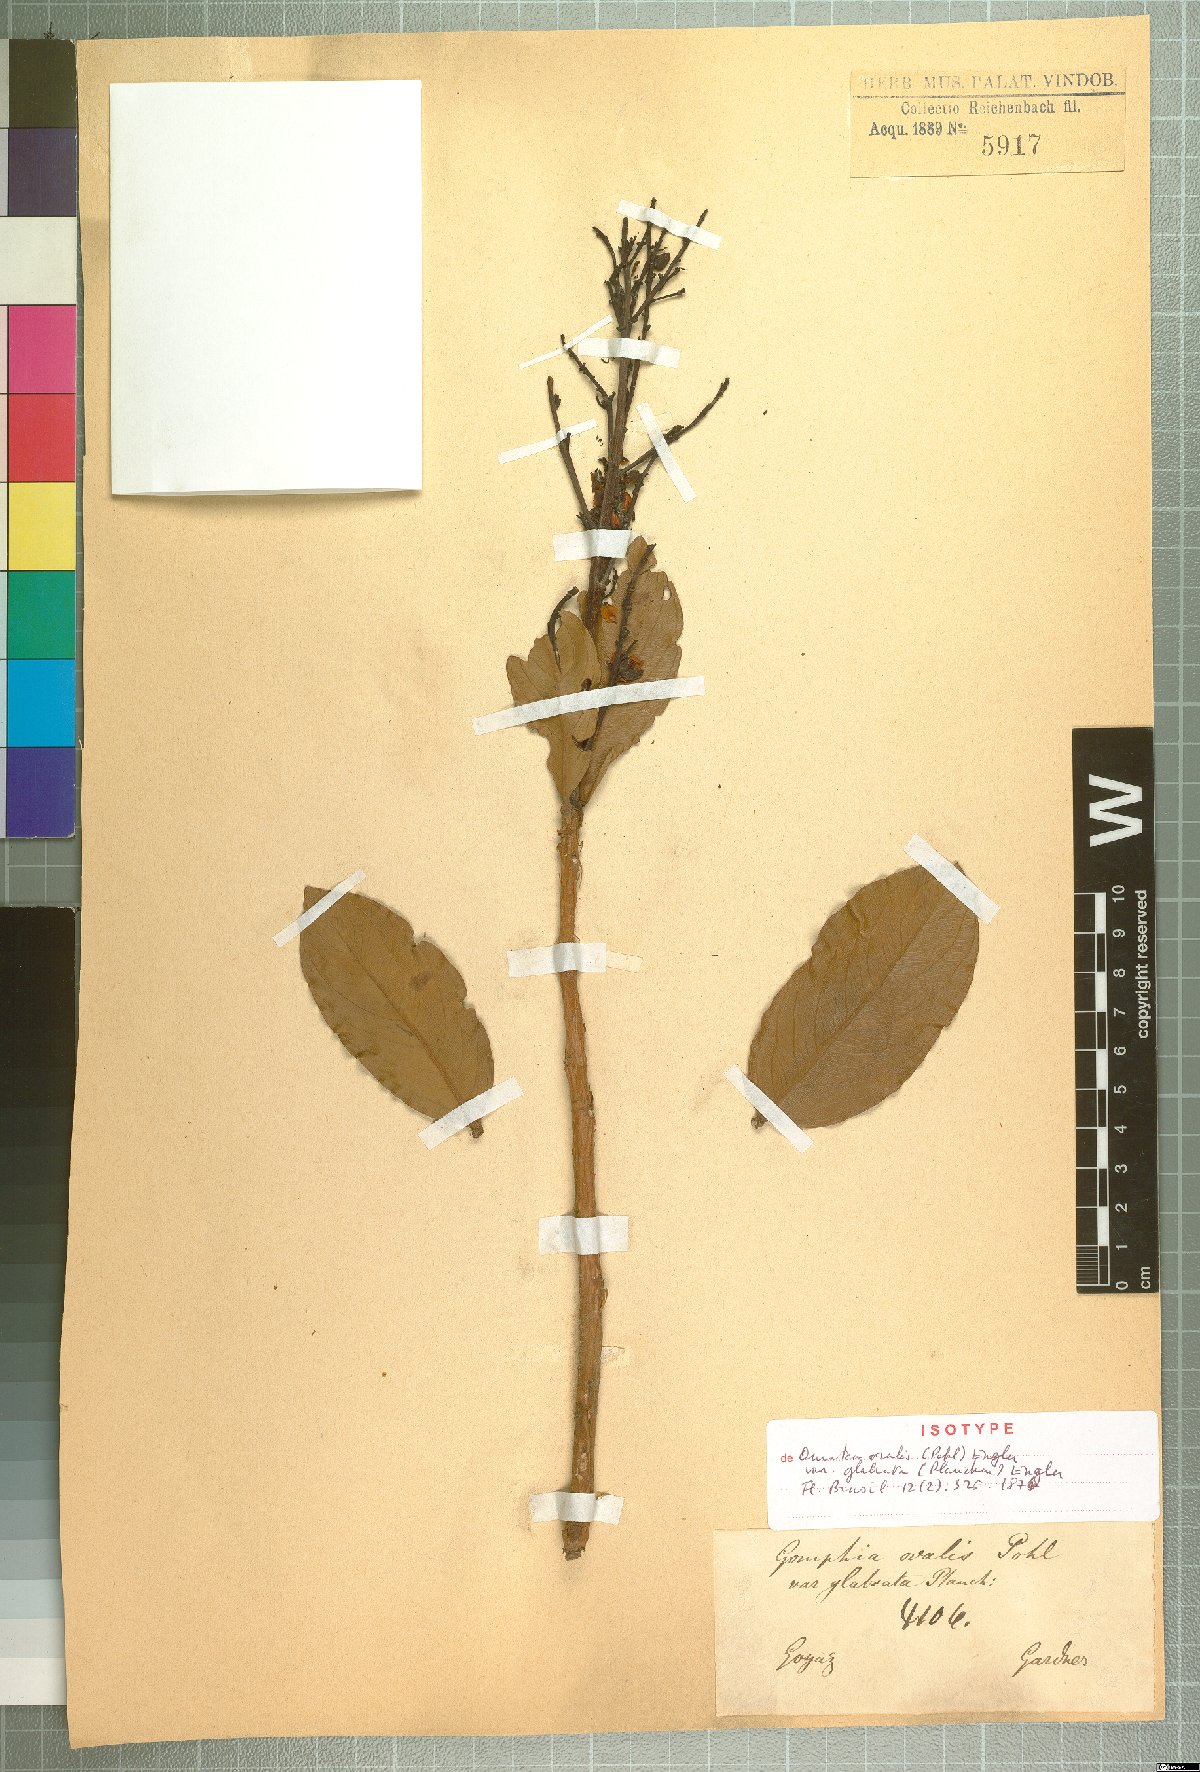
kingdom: Plantae
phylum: Tracheophyta
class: Magnoliopsida
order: Malpighiales
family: Ochnaceae
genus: Ouratea
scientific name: Ouratea ovalis
